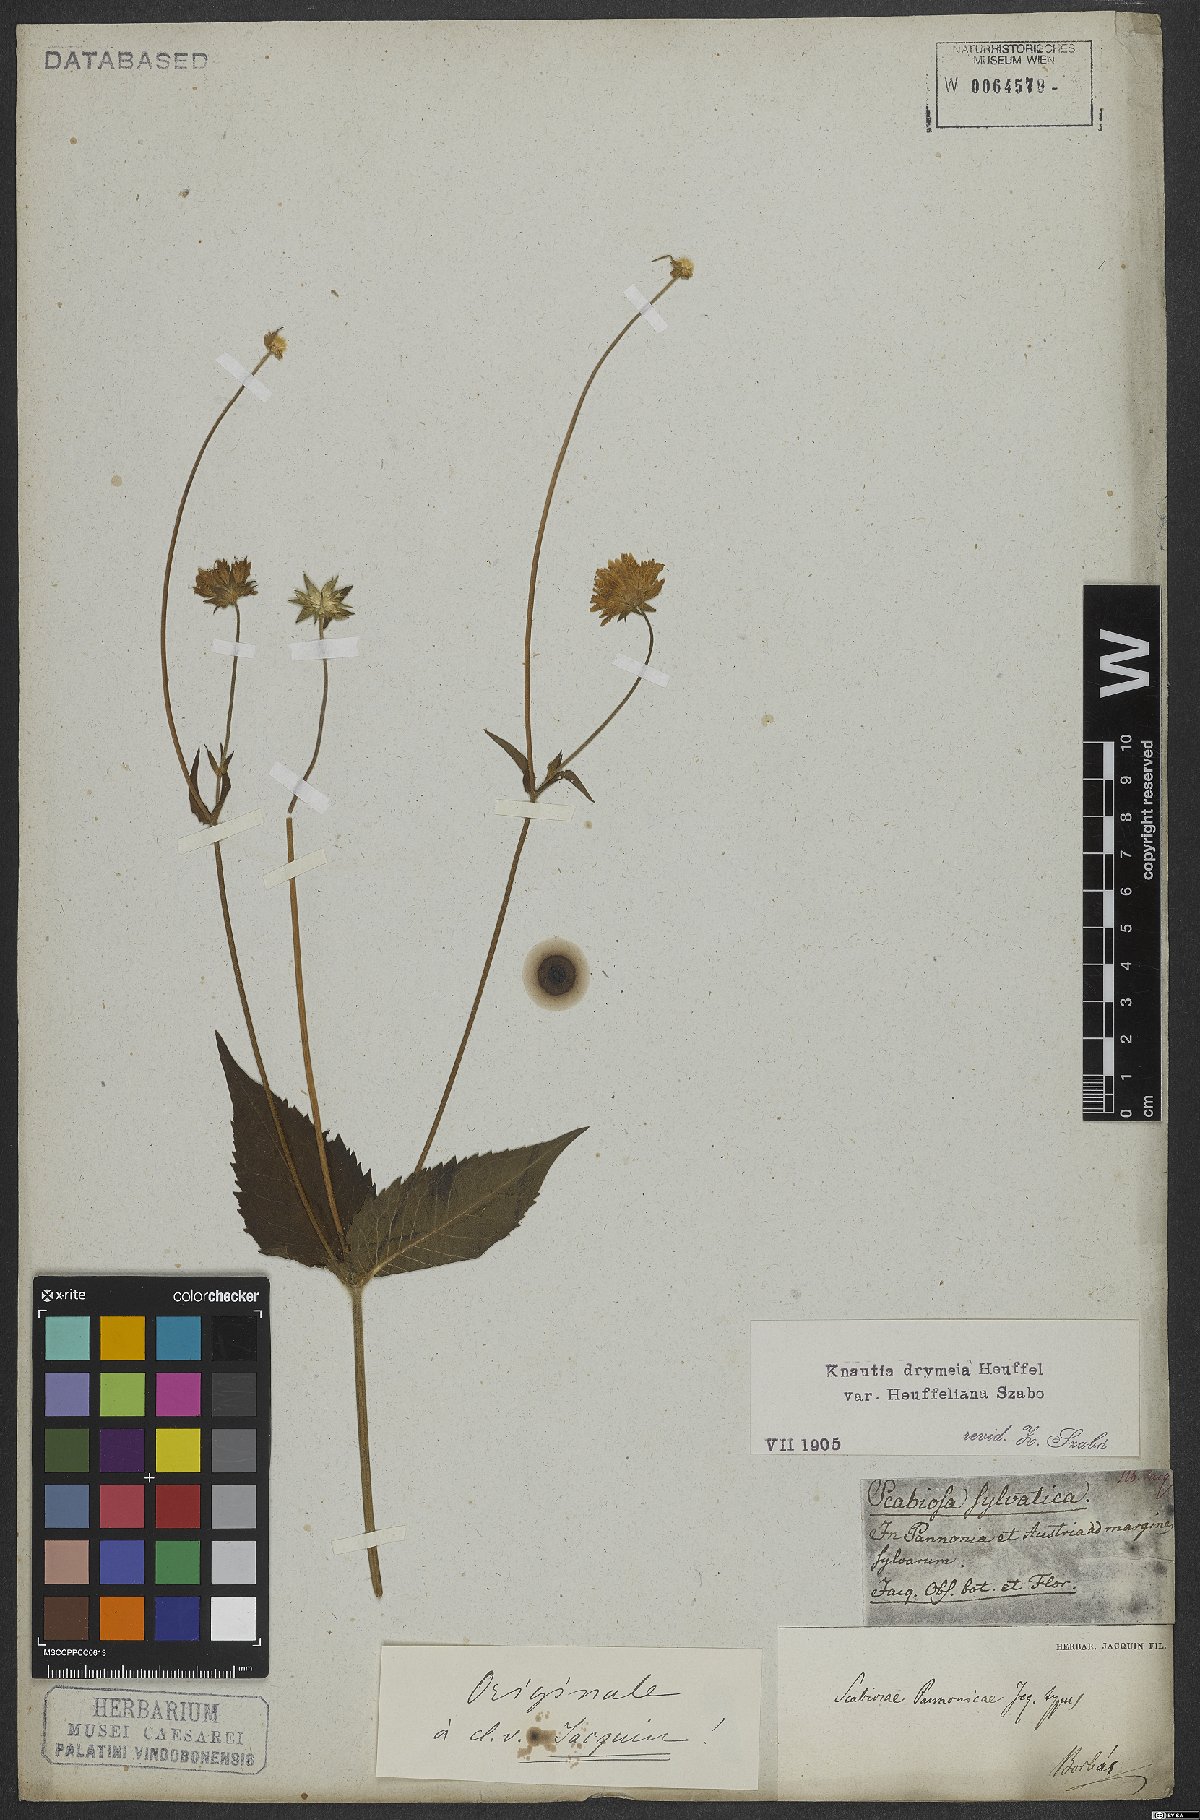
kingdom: Plantae
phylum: Tracheophyta
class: Magnoliopsida
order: Dipsacales
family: Caprifoliaceae
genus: Knautia
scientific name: Knautia drymeia
